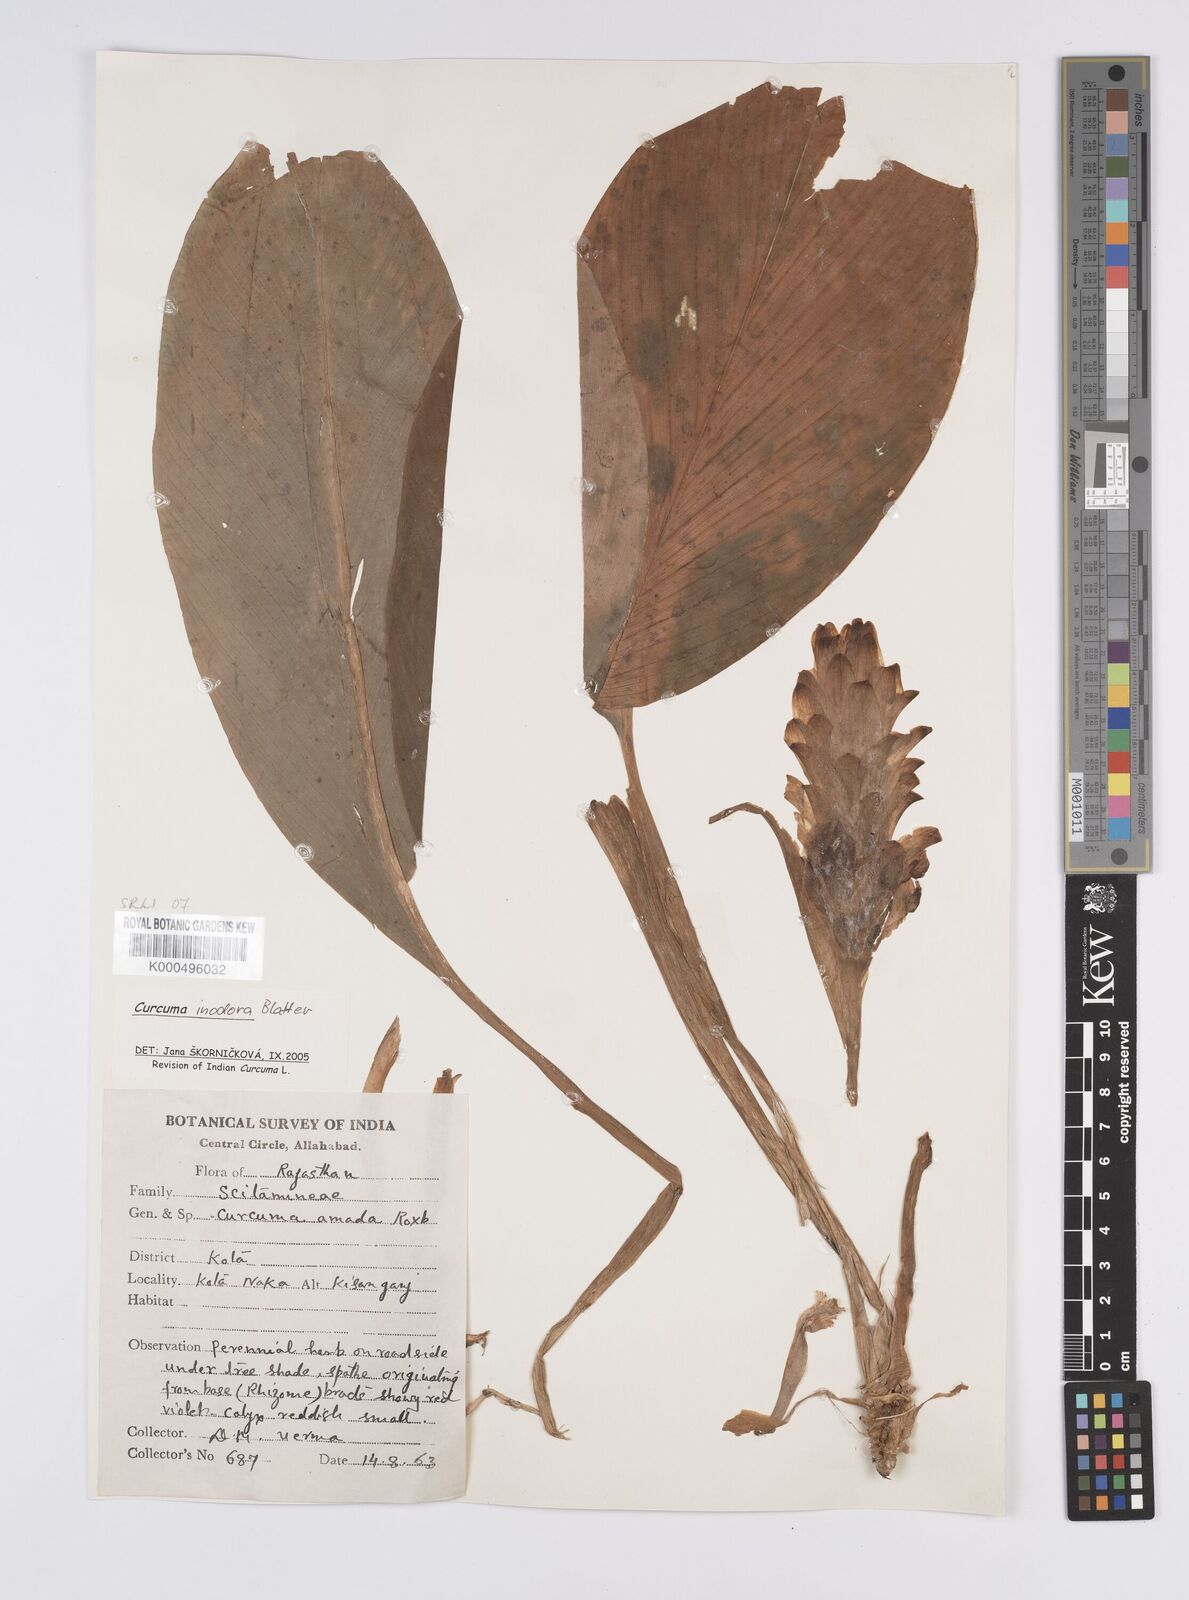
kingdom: Plantae
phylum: Tracheophyta
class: Liliopsida
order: Zingiberales
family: Zingiberaceae
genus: Curcuma
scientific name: Curcuma inodora
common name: Hidden lily
